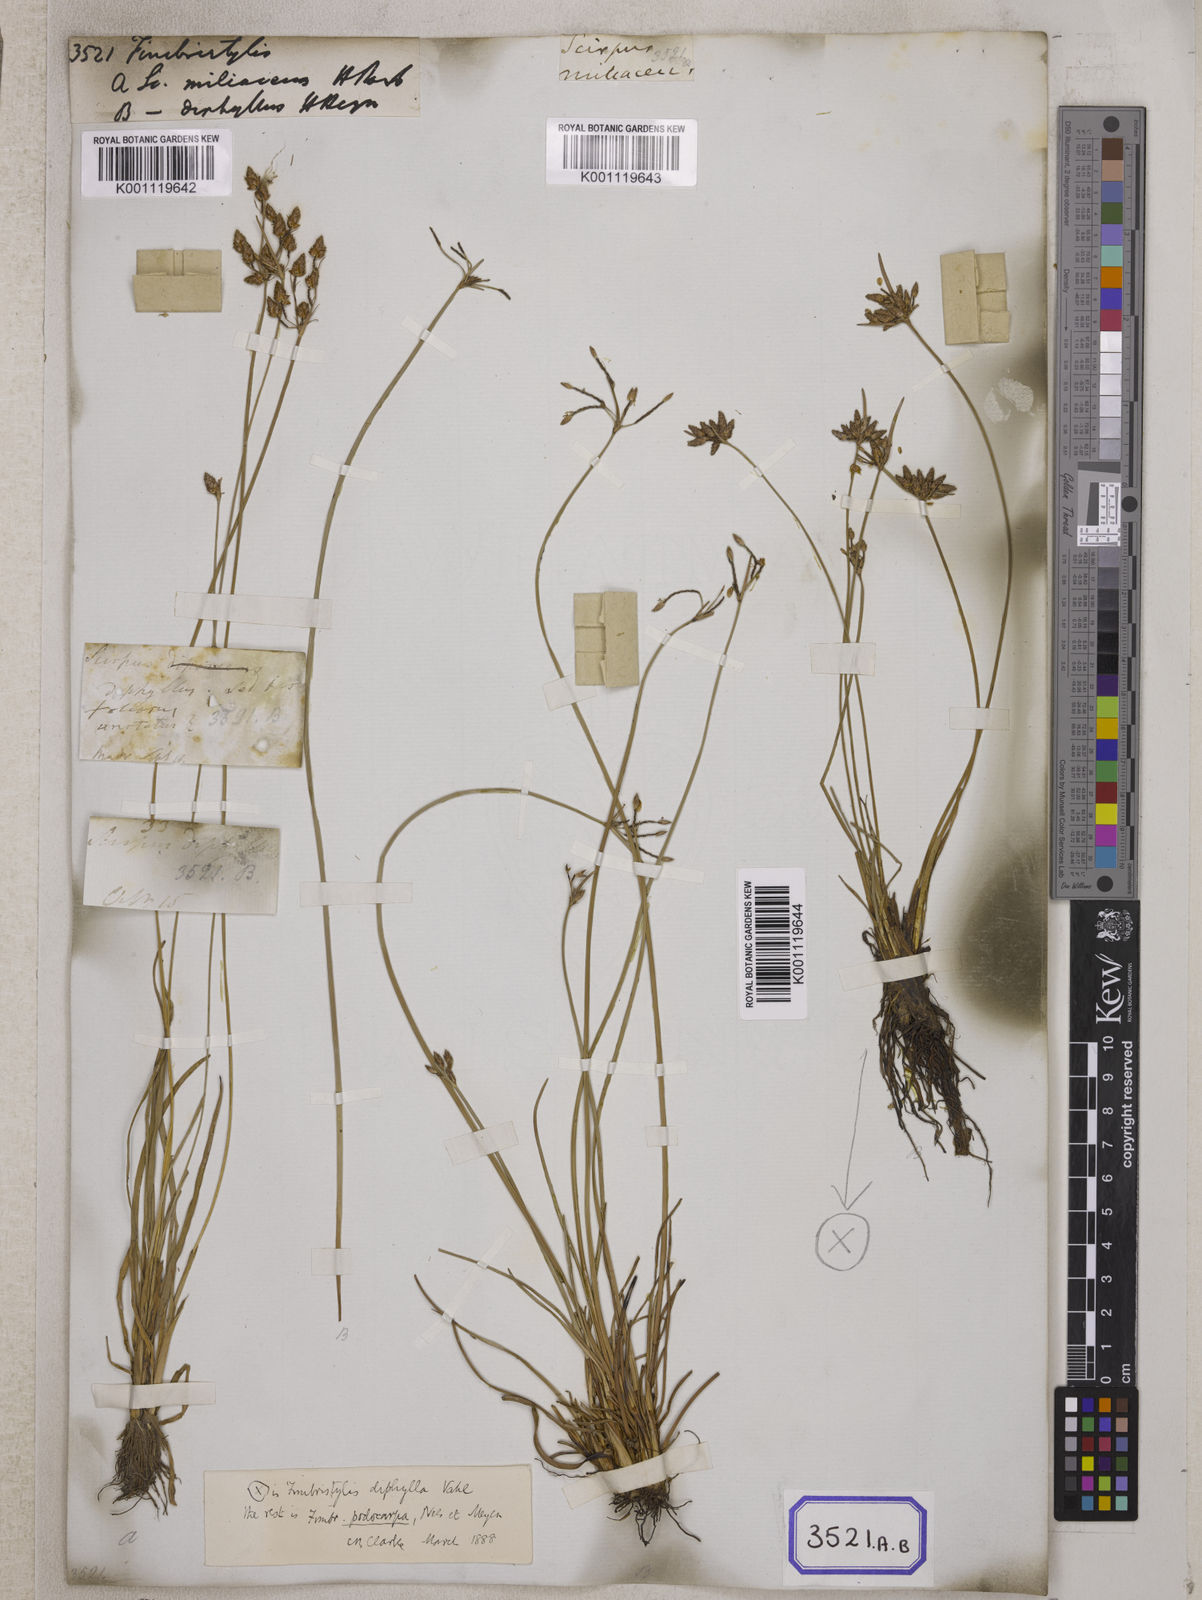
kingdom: Plantae
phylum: Tracheophyta
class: Liliopsida
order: Poales
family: Cyperaceae
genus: Fimbristylis
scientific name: Fimbristylis
